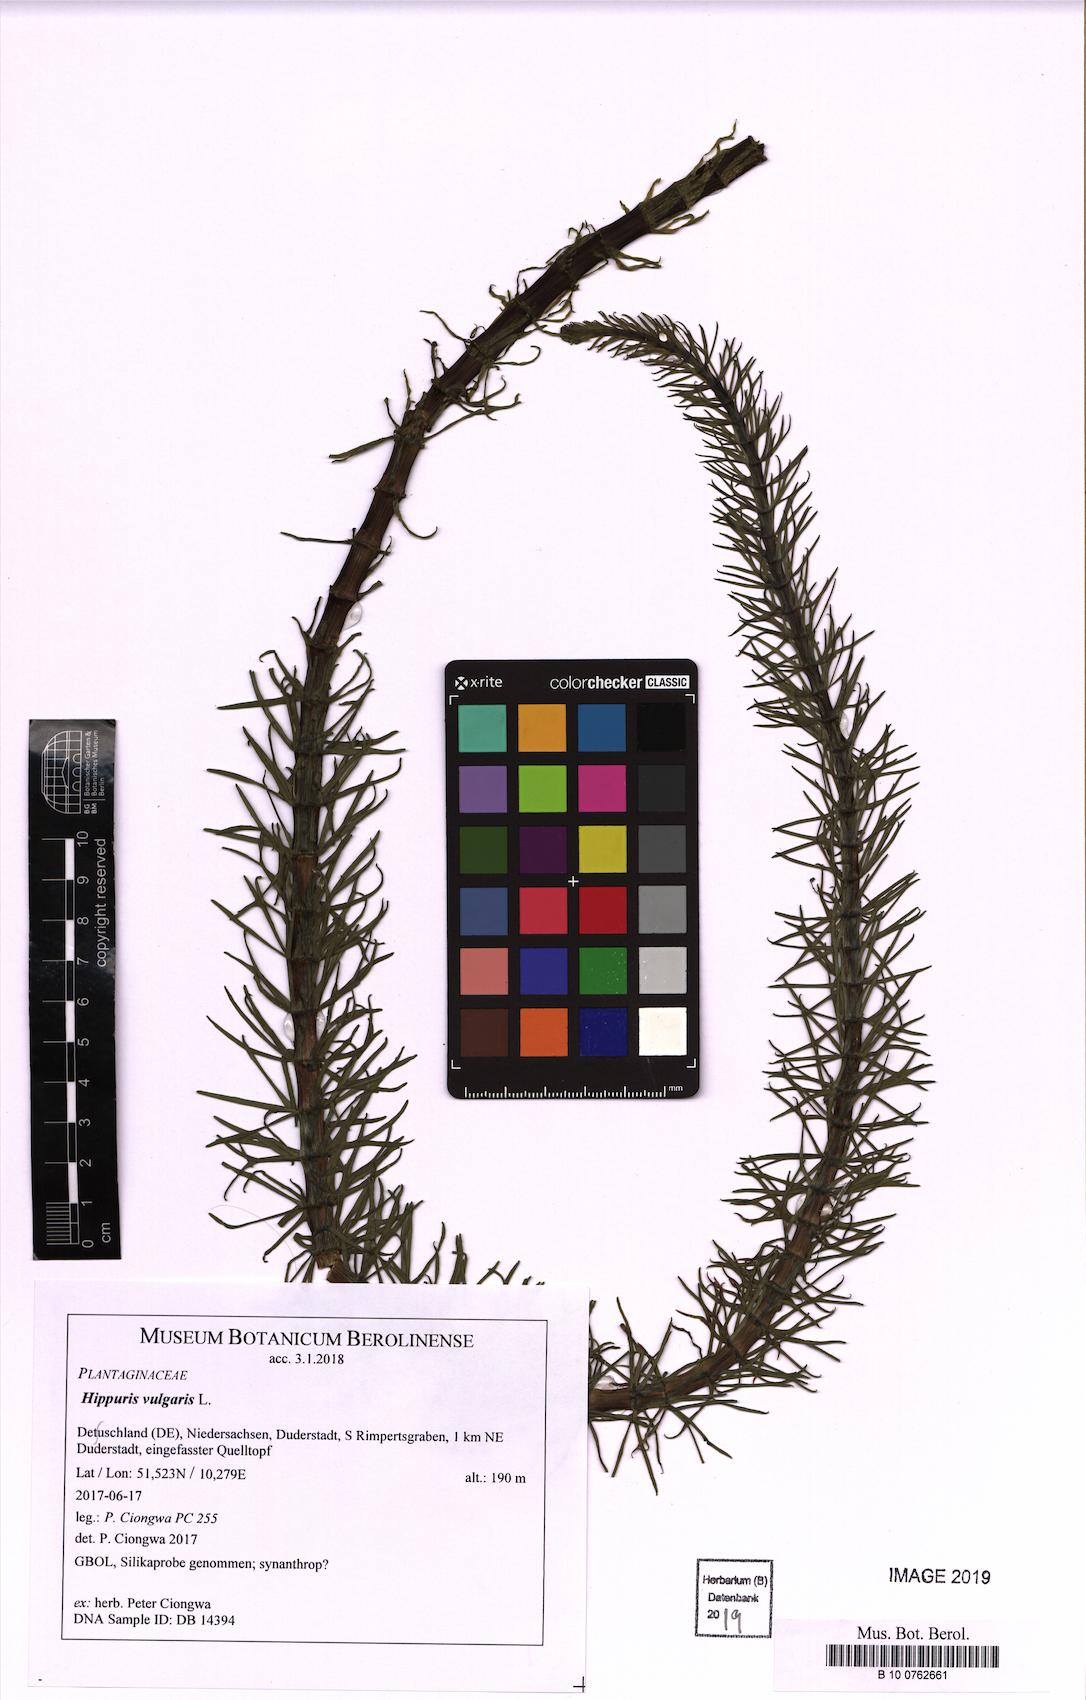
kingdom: Plantae
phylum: Tracheophyta
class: Magnoliopsida
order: Lamiales
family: Plantaginaceae
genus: Hippuris
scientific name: Hippuris vulgaris
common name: Mare's-tail
